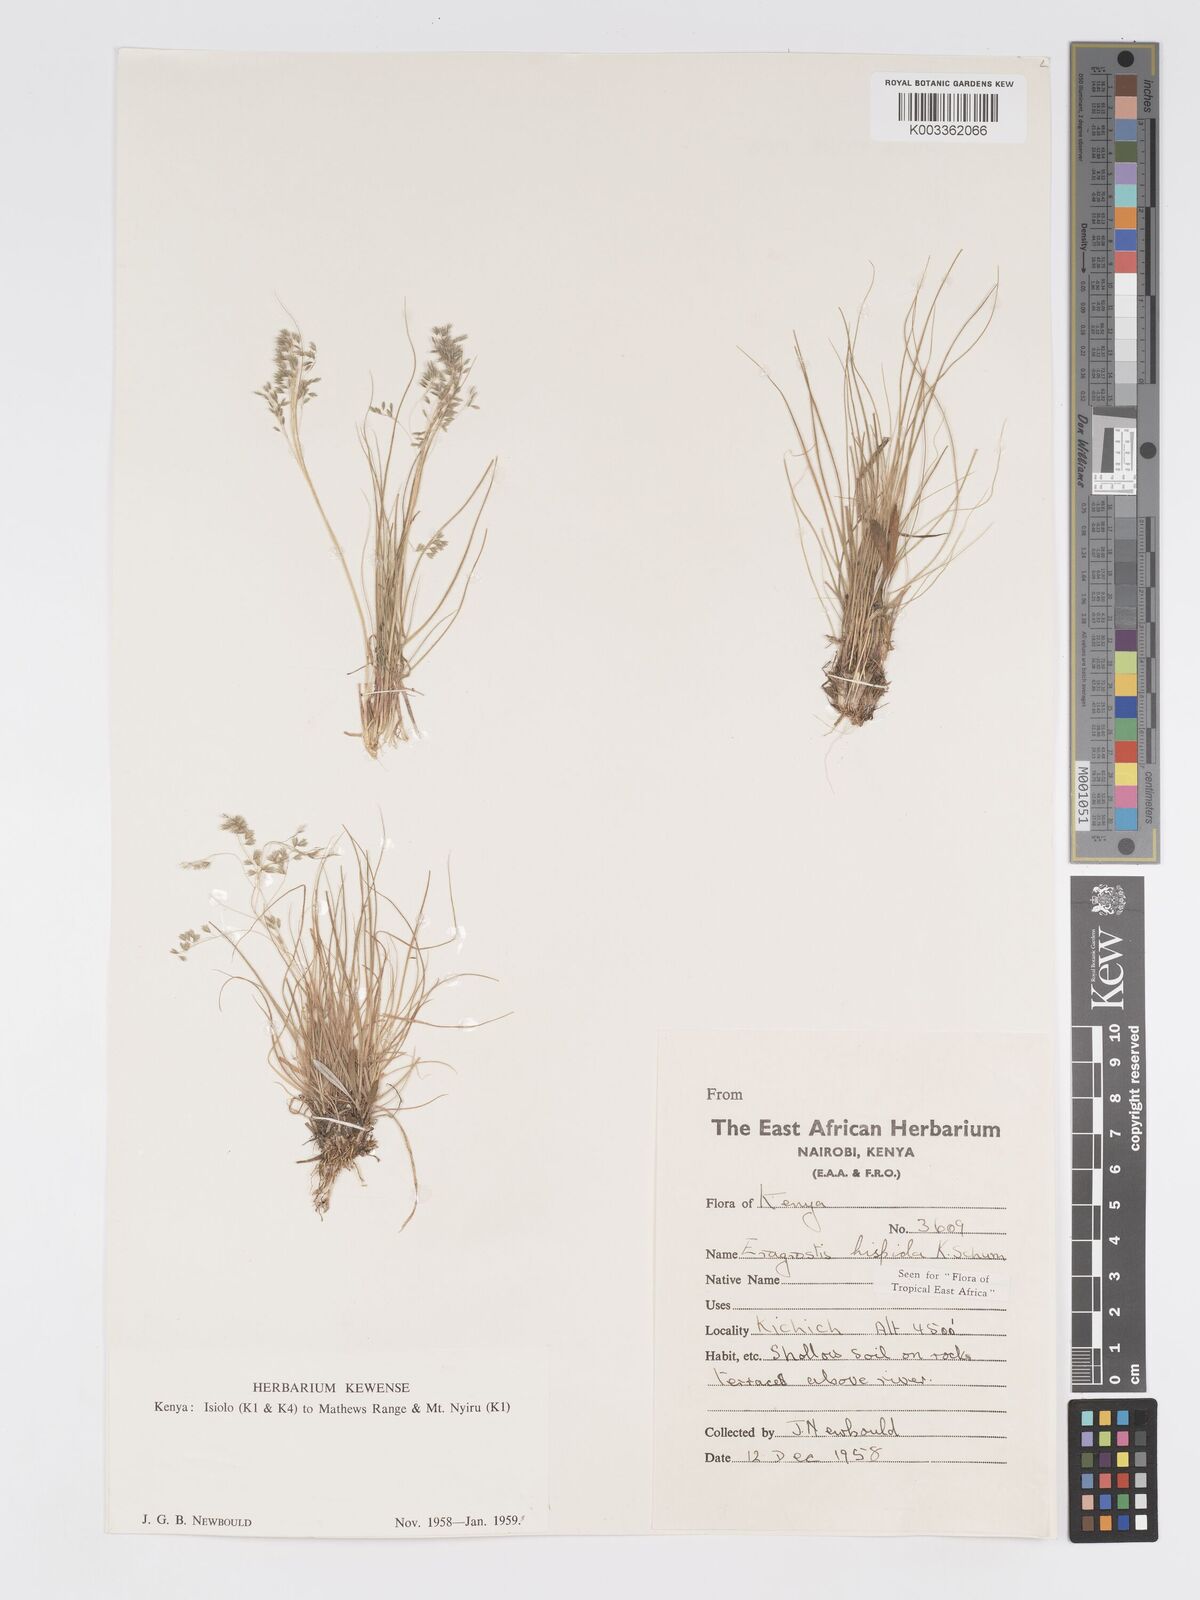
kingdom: Plantae
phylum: Tracheophyta
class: Liliopsida
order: Poales
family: Poaceae
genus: Eragrostis
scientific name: Eragrostis hispida
